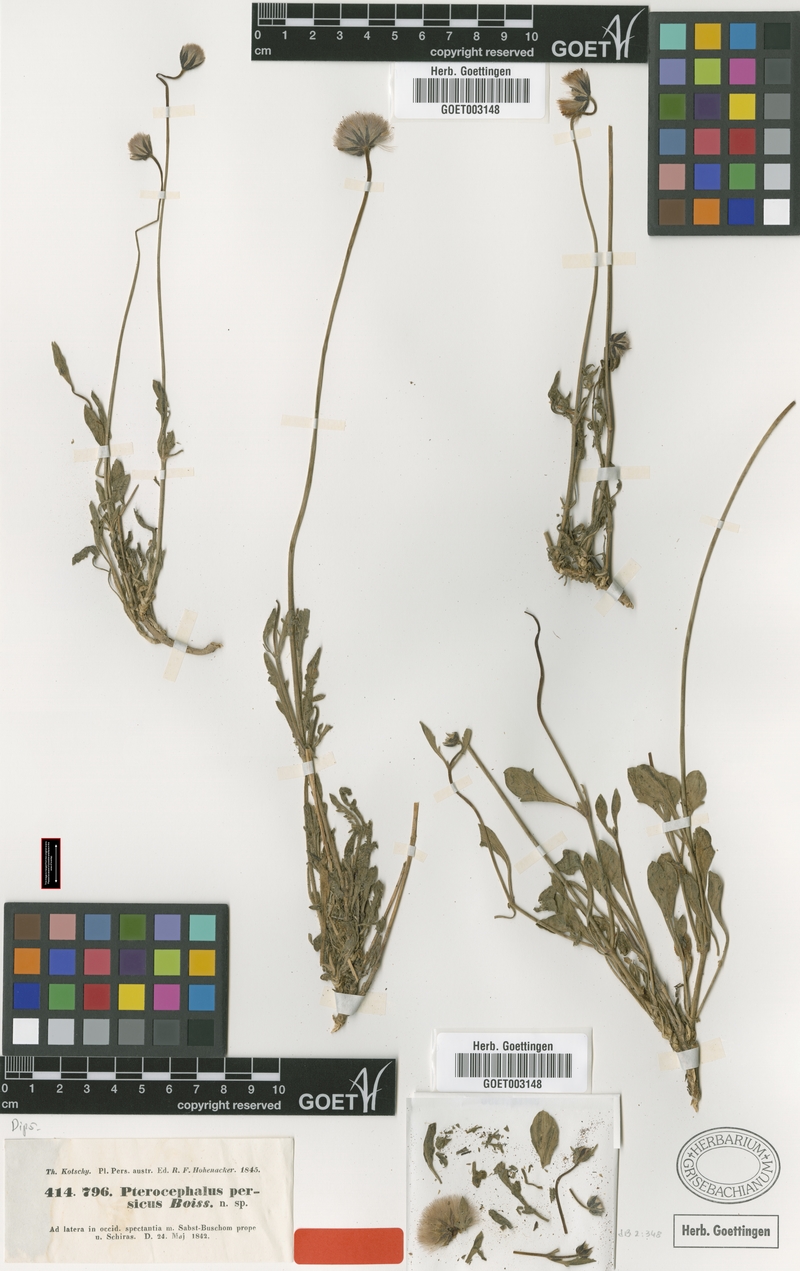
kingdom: Plantae
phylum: Tracheophyta
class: Magnoliopsida
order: Dipsacales
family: Caprifoliaceae
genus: Pterocephalus
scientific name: Pterocephalus persicus
